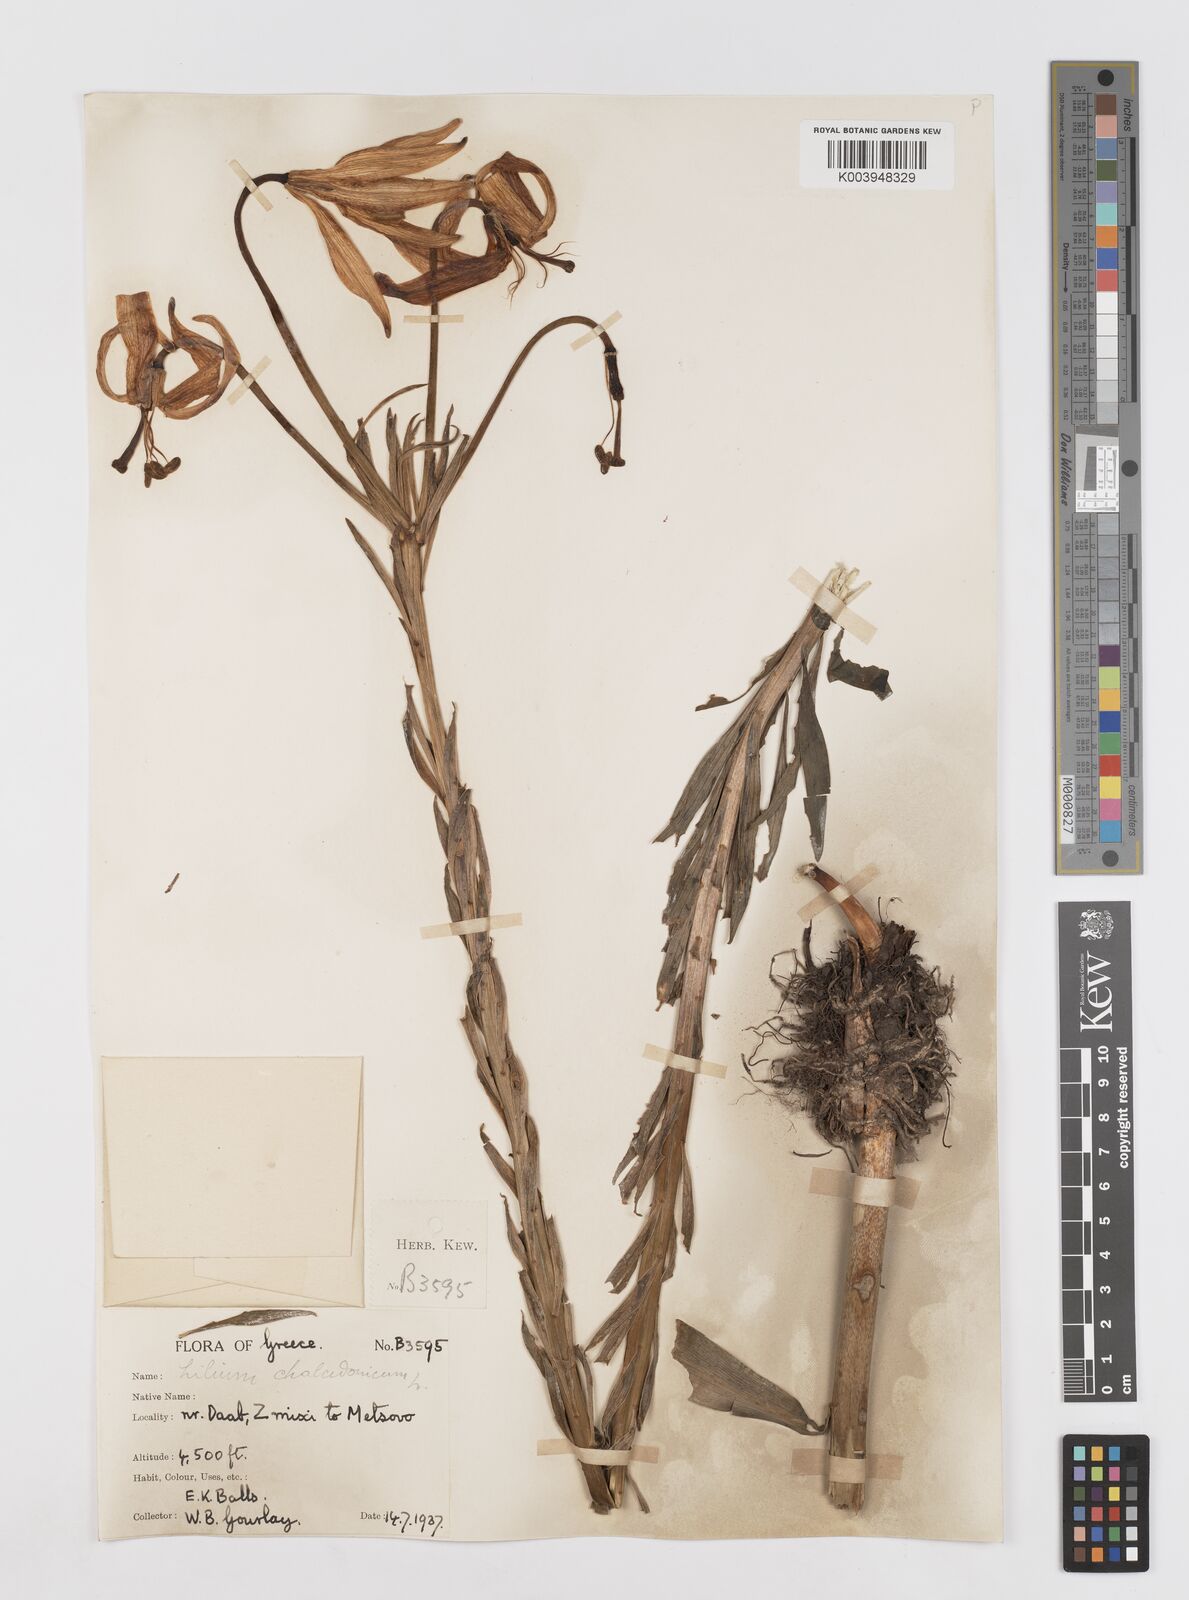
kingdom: Plantae
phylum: Tracheophyta
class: Liliopsida
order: Liliales
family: Liliaceae
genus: Lilium
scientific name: Lilium chalcedonicum
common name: Red martagon of constantinople
